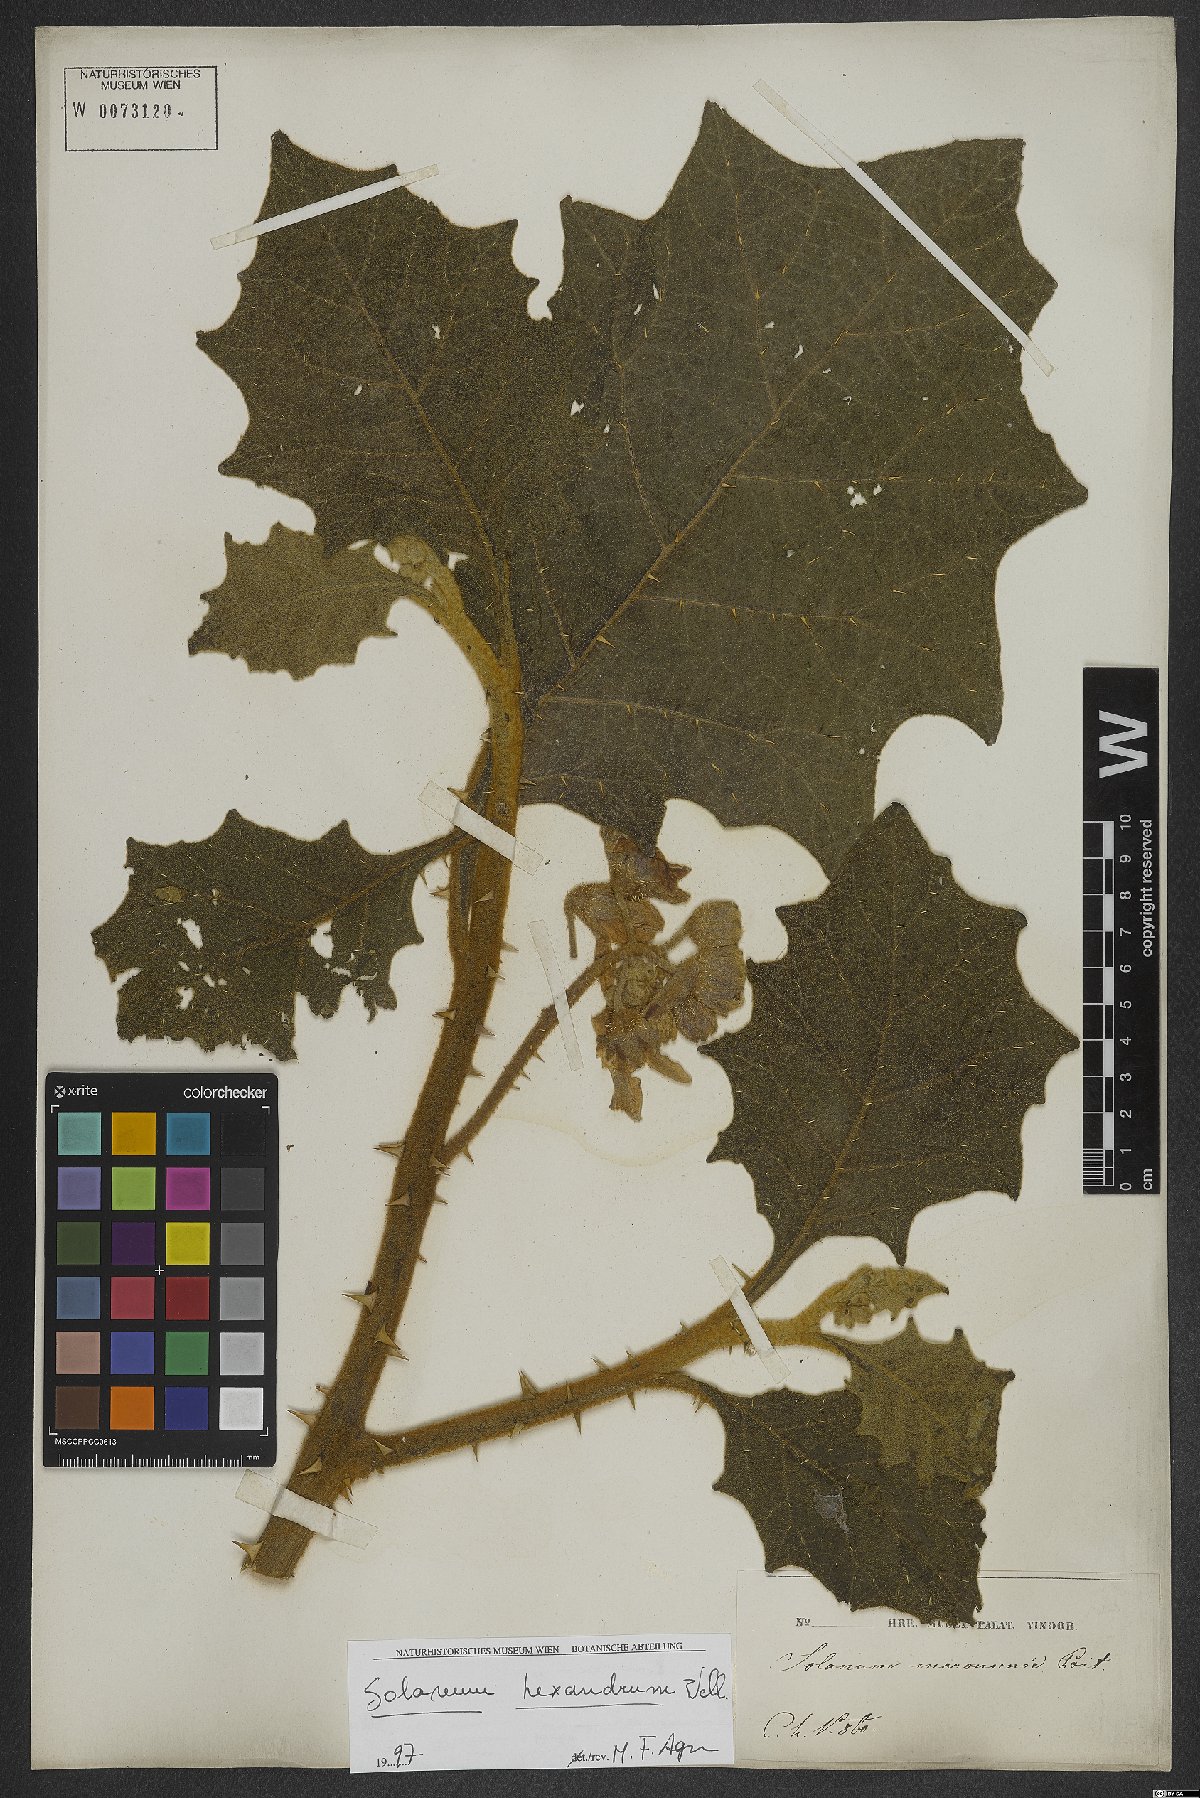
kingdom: Plantae
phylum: Tracheophyta
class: Magnoliopsida
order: Solanales
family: Solanaceae
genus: Solanum
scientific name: Solanum hexandrum
